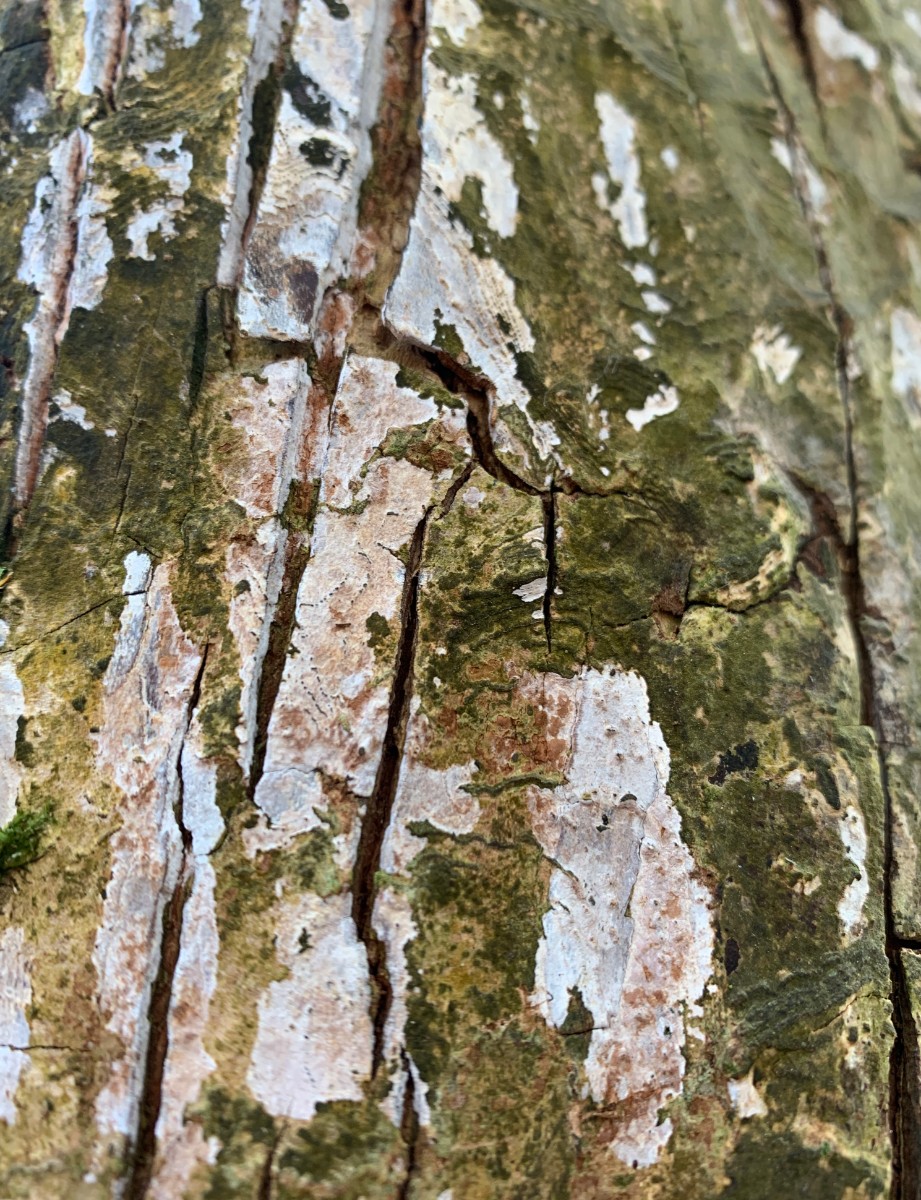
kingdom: Fungi
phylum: Basidiomycota
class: Agaricomycetes
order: Agaricales
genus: Dendrothele
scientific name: Dendrothele acerina
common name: navr-kalkplet
